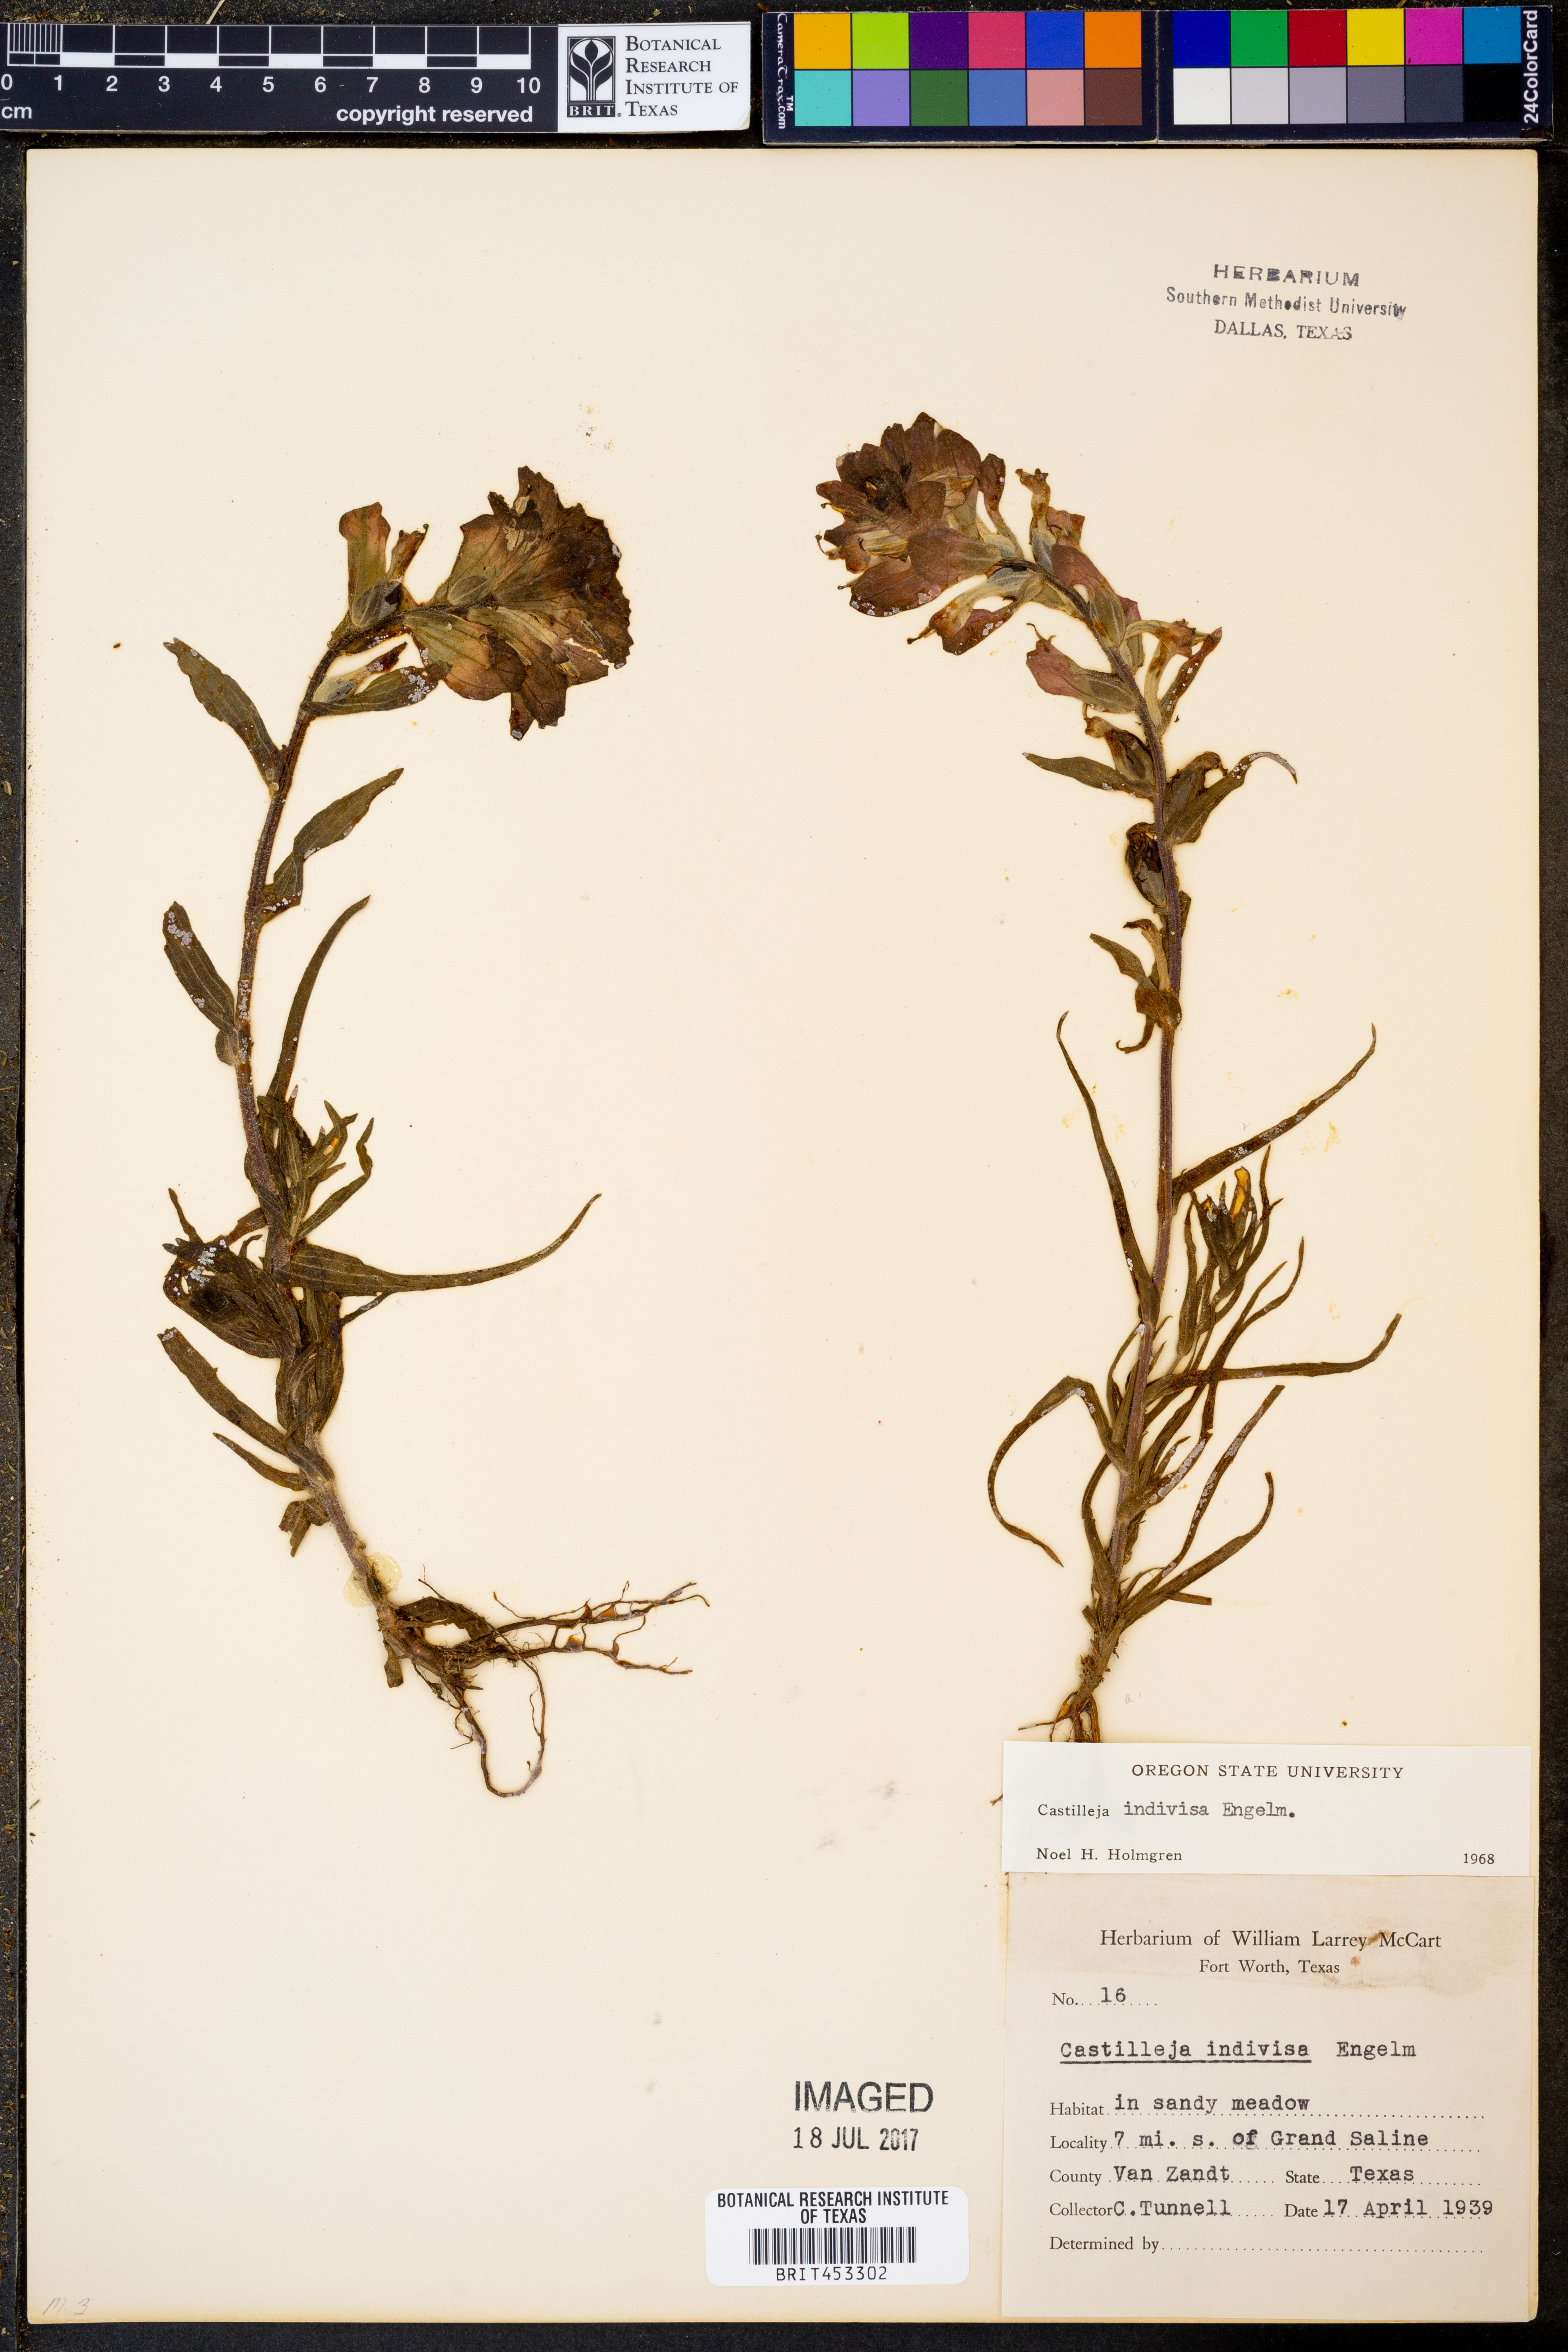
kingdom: Plantae
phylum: Tracheophyta
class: Magnoliopsida
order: Lamiales
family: Orobanchaceae
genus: Castilleja
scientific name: Castilleja indivisa
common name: Texas paintbrush
